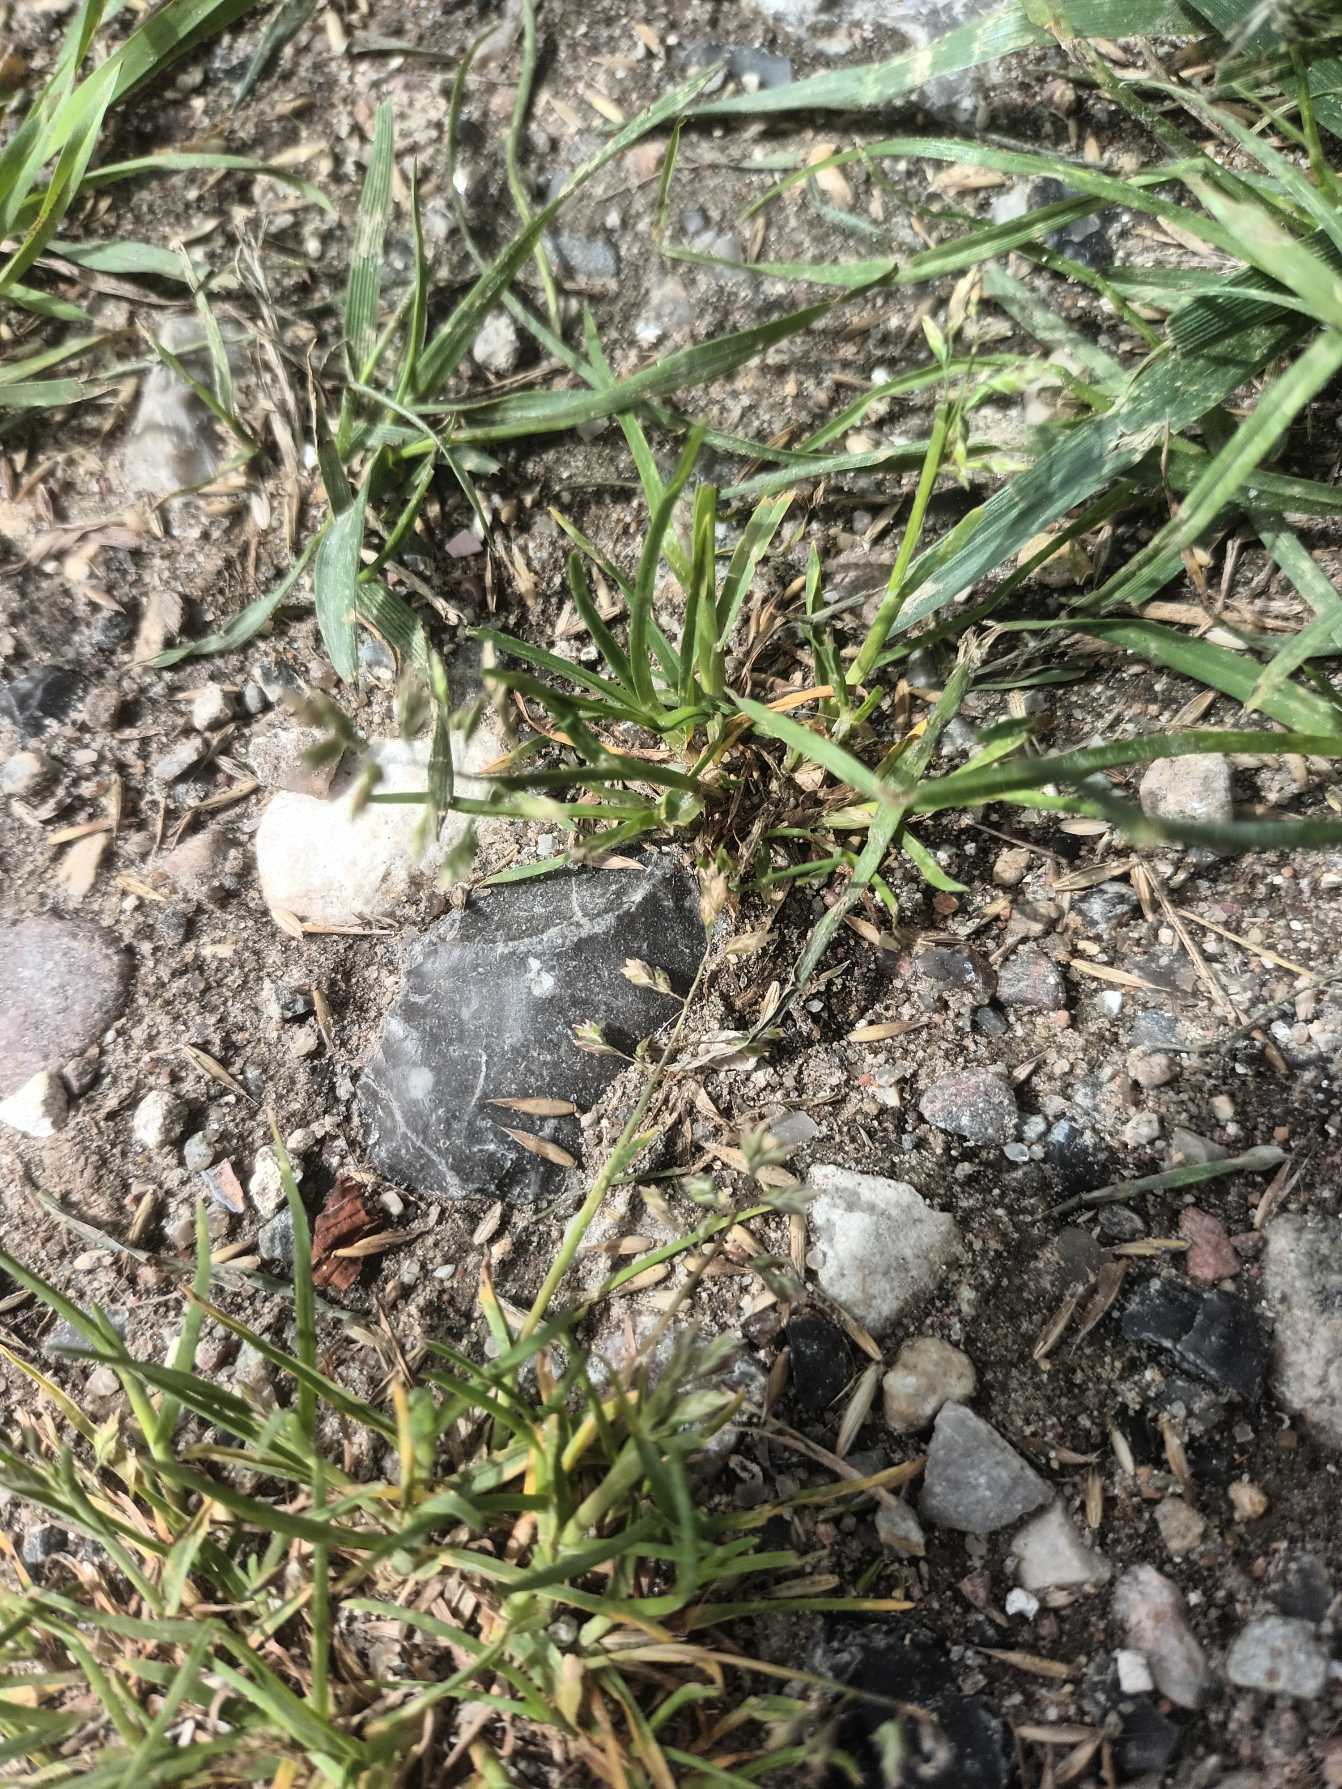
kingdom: Plantae
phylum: Tracheophyta
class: Liliopsida
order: Poales
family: Poaceae
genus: Poa
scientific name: Poa annua
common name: Enårig rapgræs
